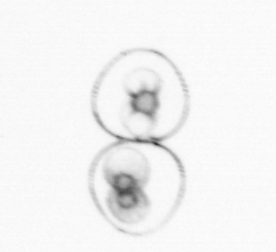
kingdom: Chromista
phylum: Myzozoa
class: Dinophyceae
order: Noctilucales
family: Noctilucaceae
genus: Noctiluca
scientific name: Noctiluca scintillans
